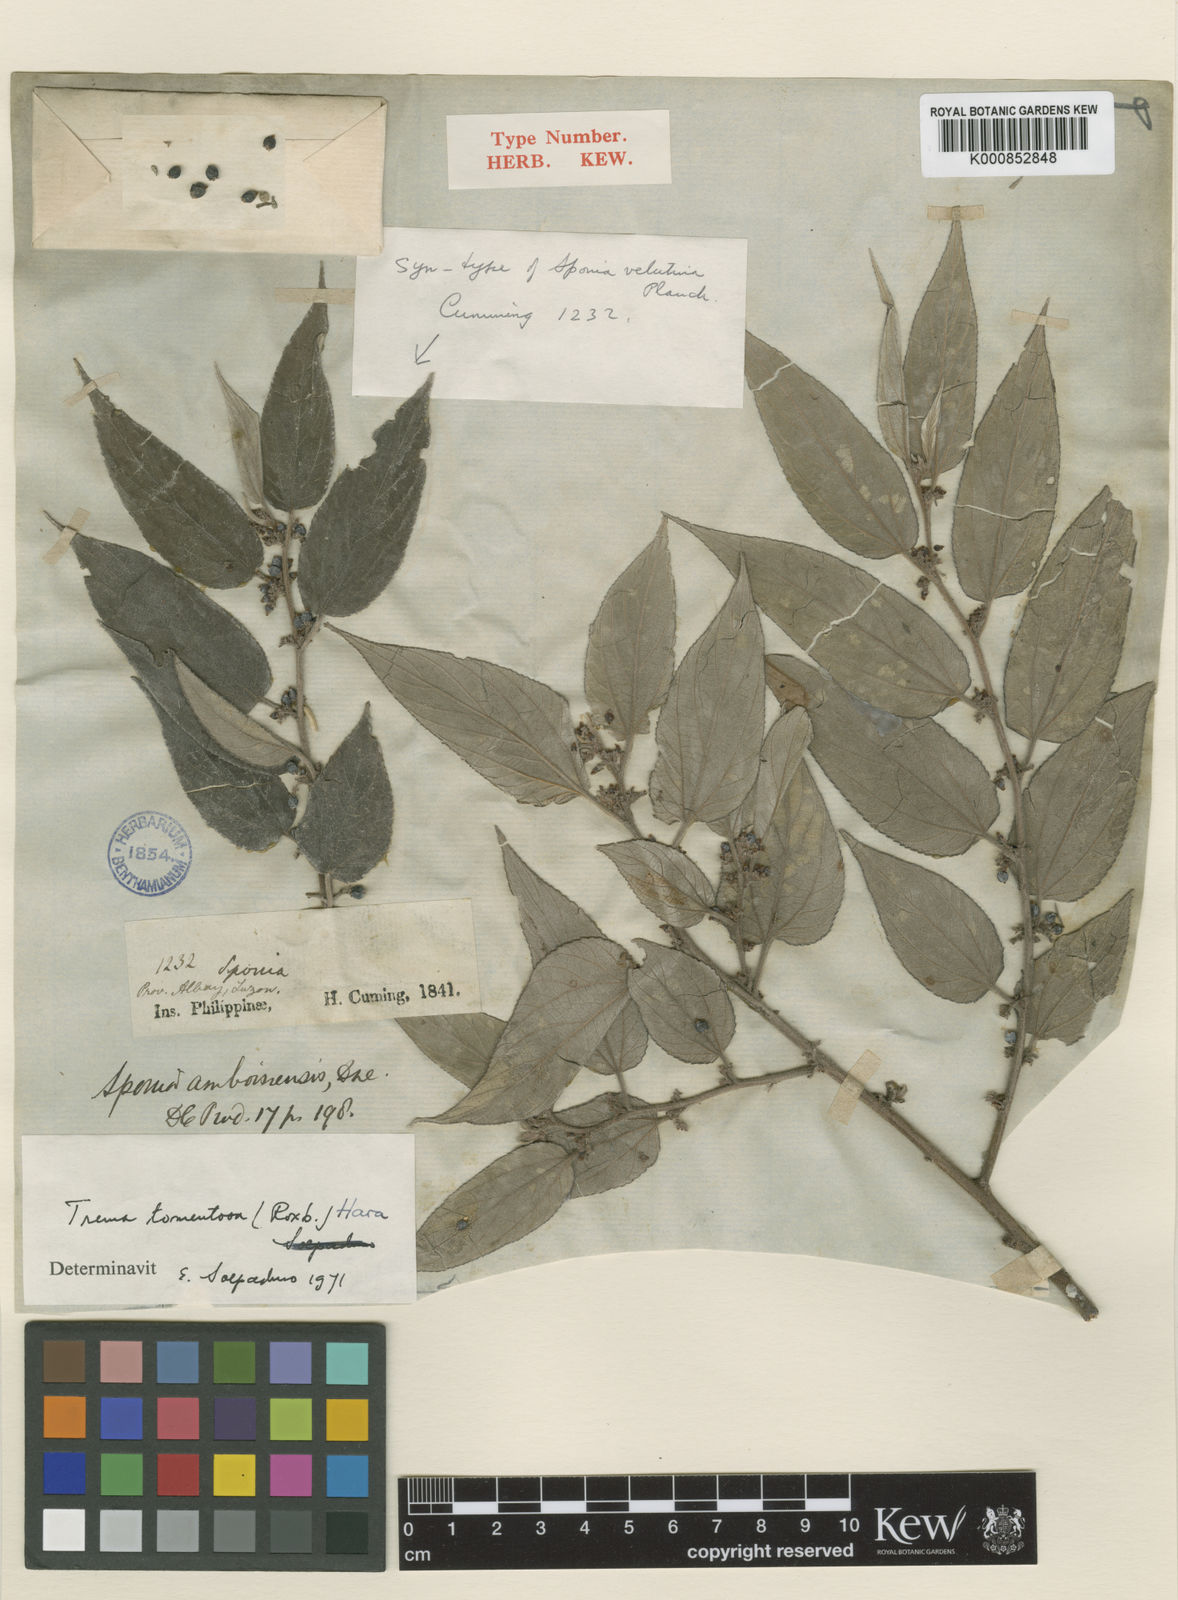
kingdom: Plantae
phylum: Tracheophyta
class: Magnoliopsida
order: Rosales
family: Cannabaceae
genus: Trema
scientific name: Trema tomentosum
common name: Peach-leaf-poisonbush
